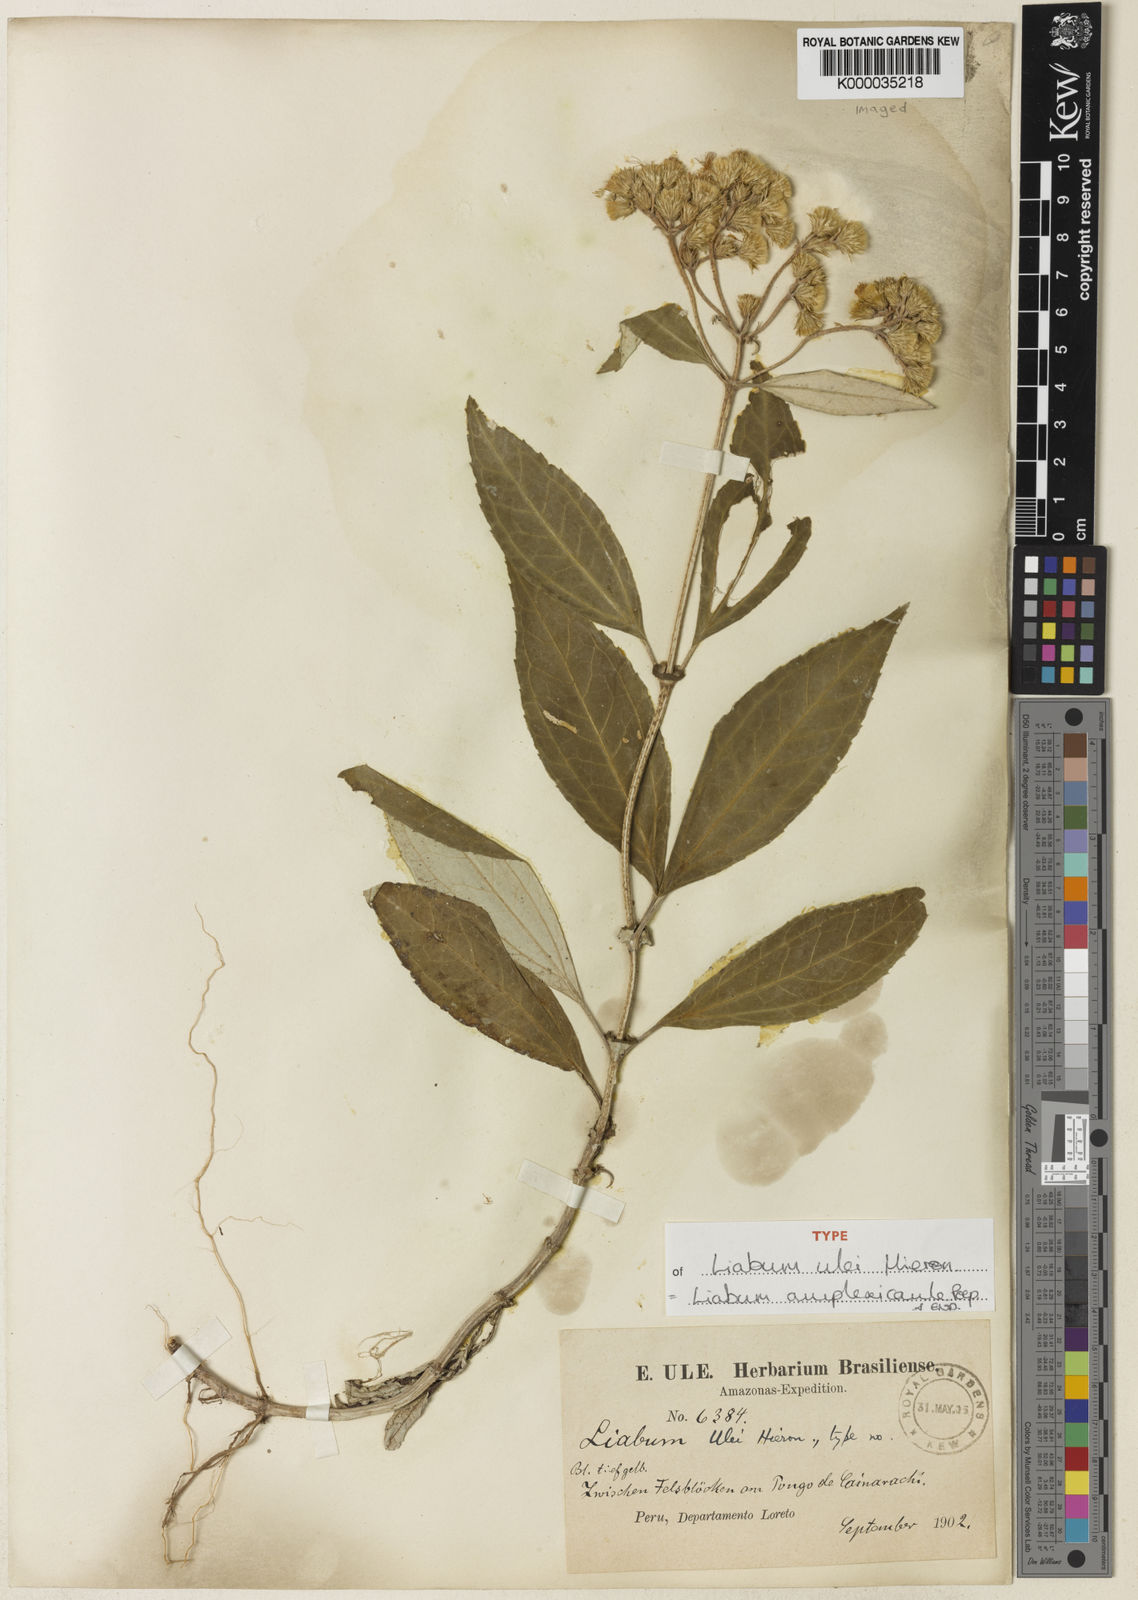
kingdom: Plantae
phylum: Tracheophyta
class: Magnoliopsida
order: Asterales
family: Asteraceae
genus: Liabum
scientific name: Liabum amplexicaule
